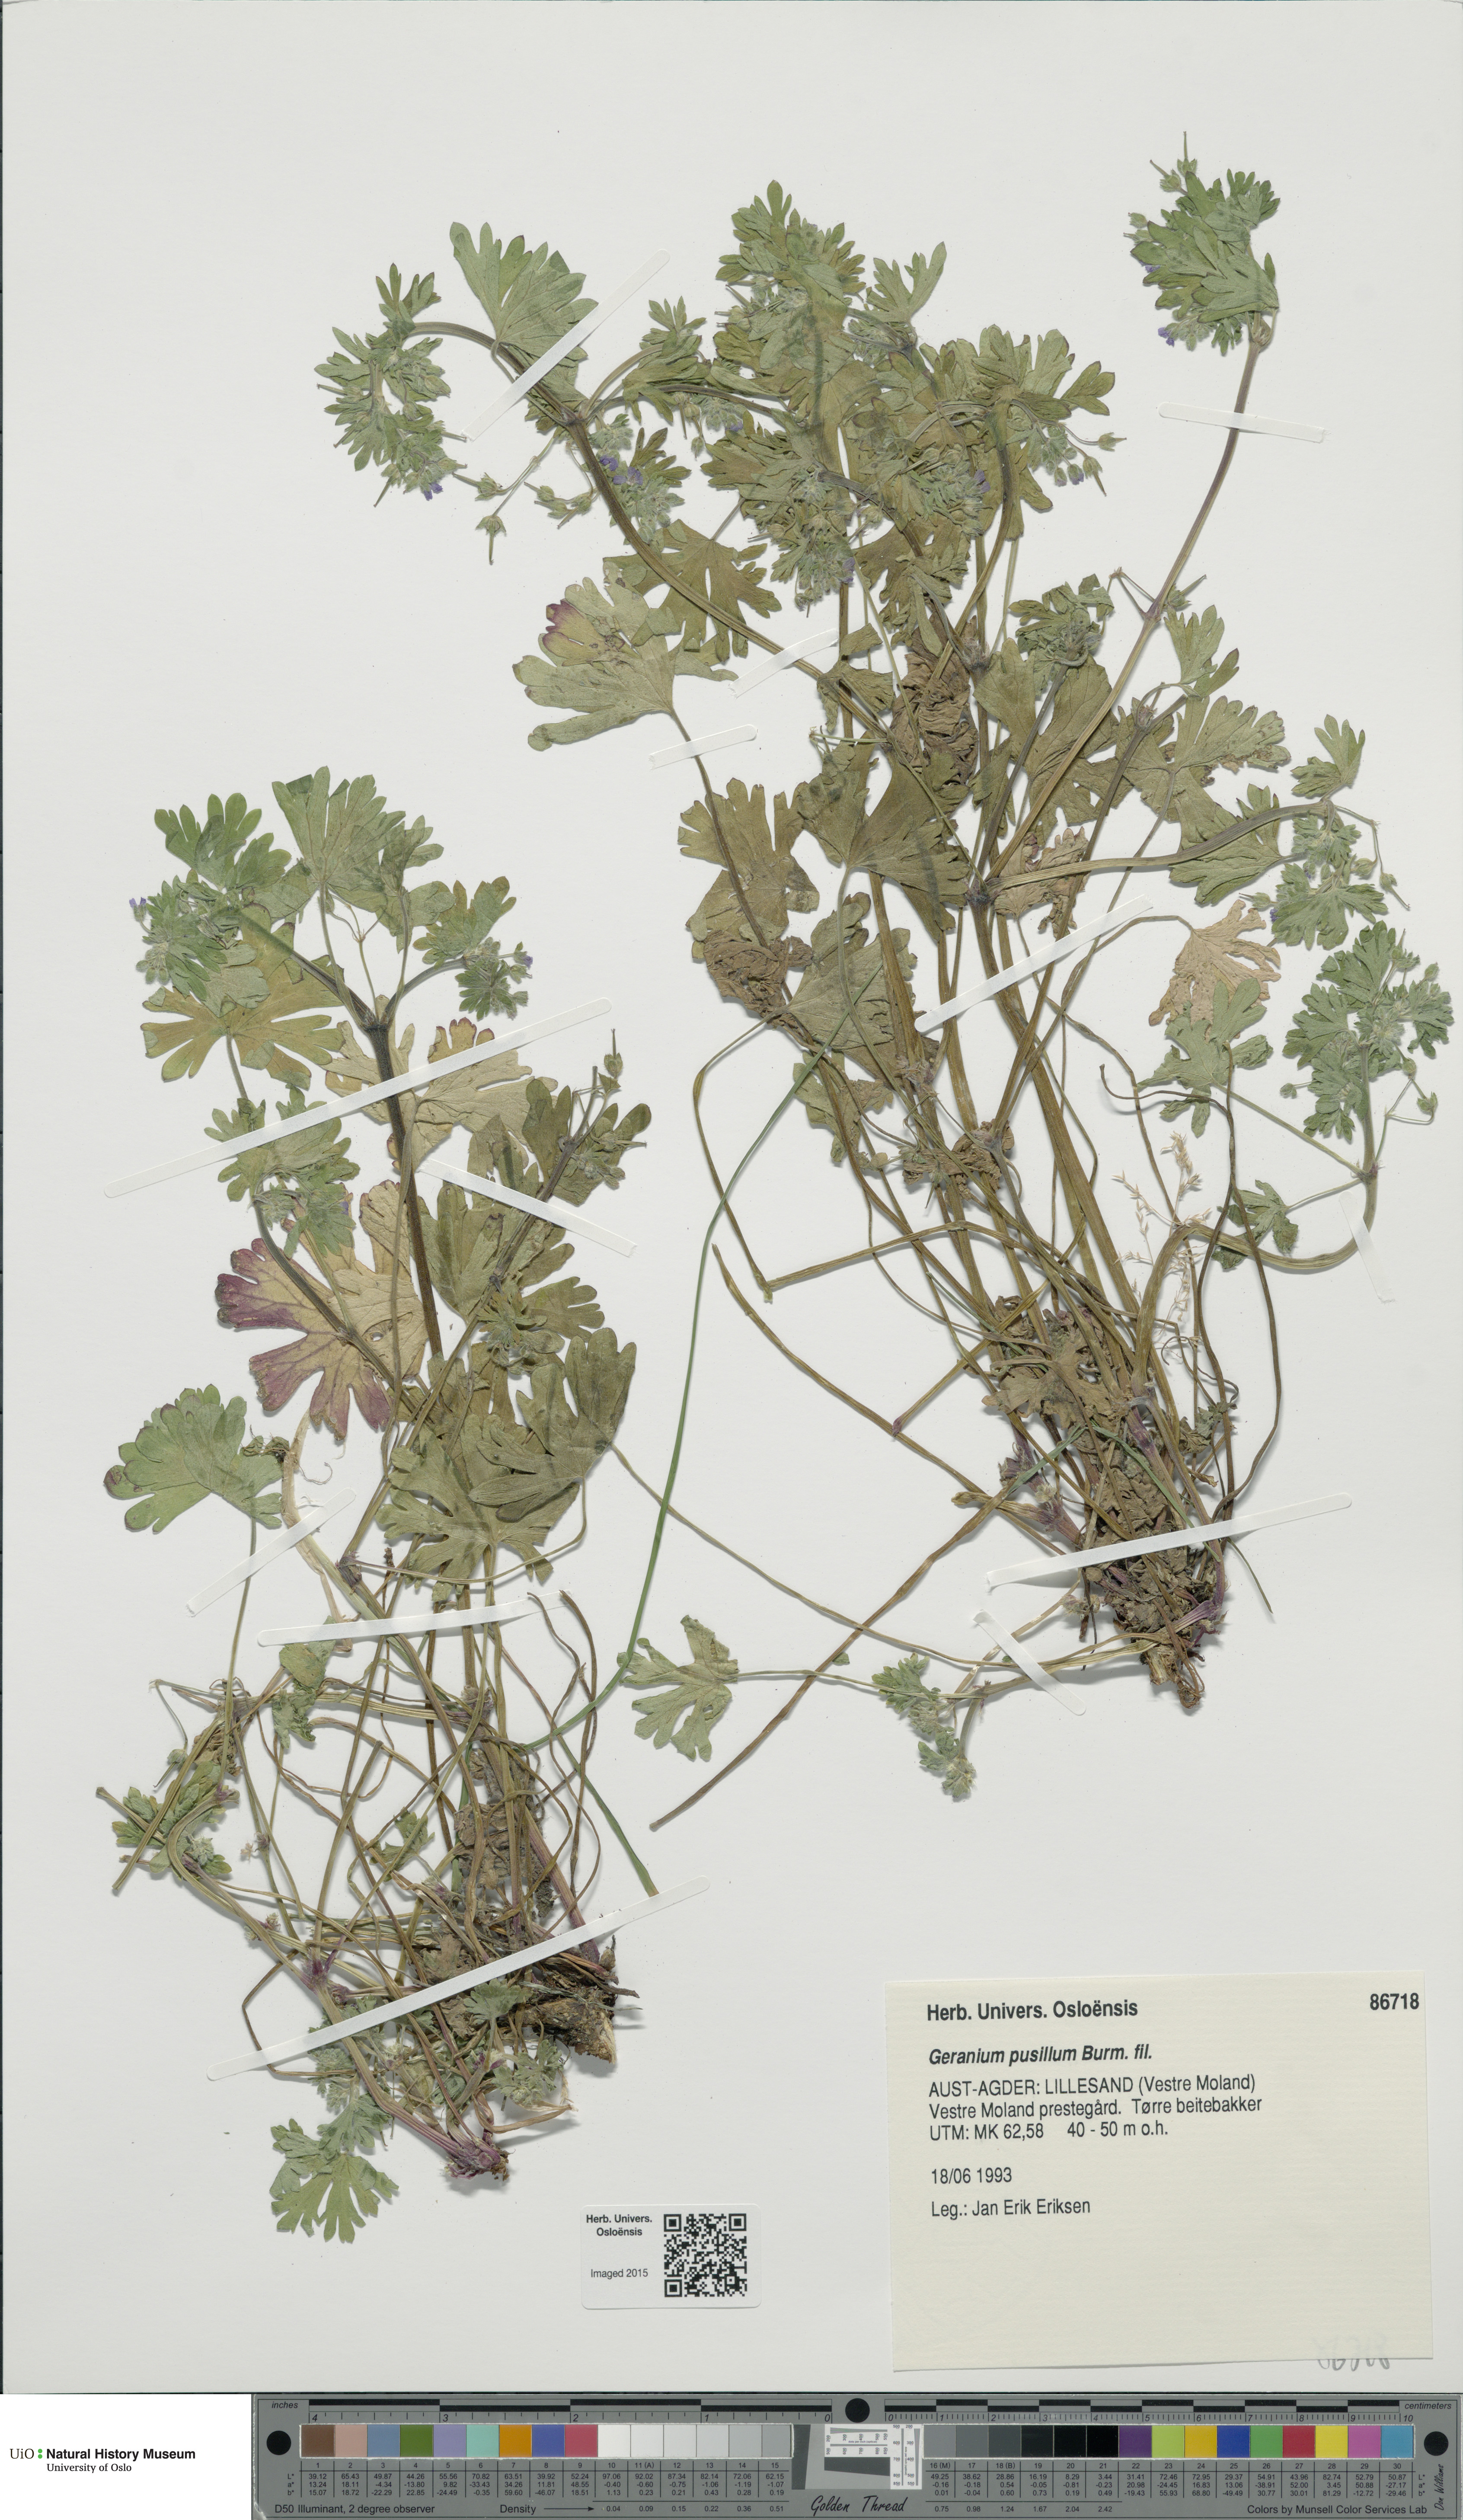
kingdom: Plantae
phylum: Tracheophyta
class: Magnoliopsida
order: Geraniales
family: Geraniaceae
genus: Geranium
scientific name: Geranium pusillum
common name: Small geranium
